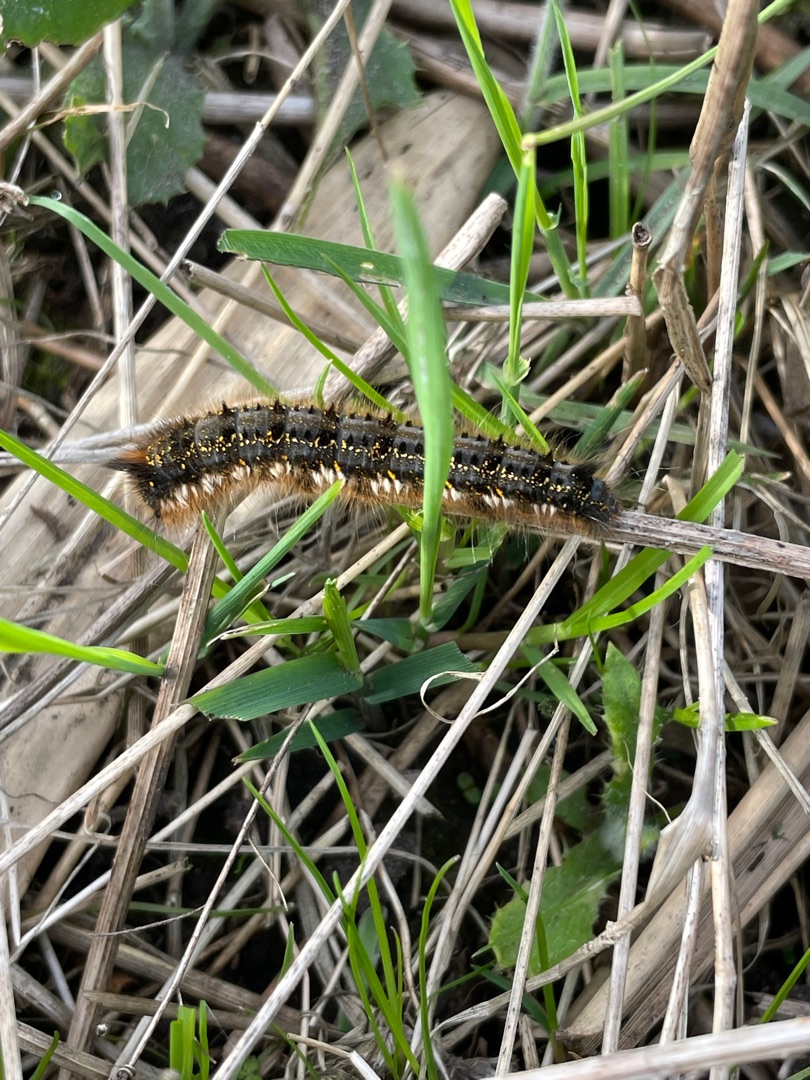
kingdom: Animalia
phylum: Arthropoda
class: Insecta
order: Lepidoptera
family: Lasiocampidae
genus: Euthrix
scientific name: Euthrix potatoria
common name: Græsspinder
